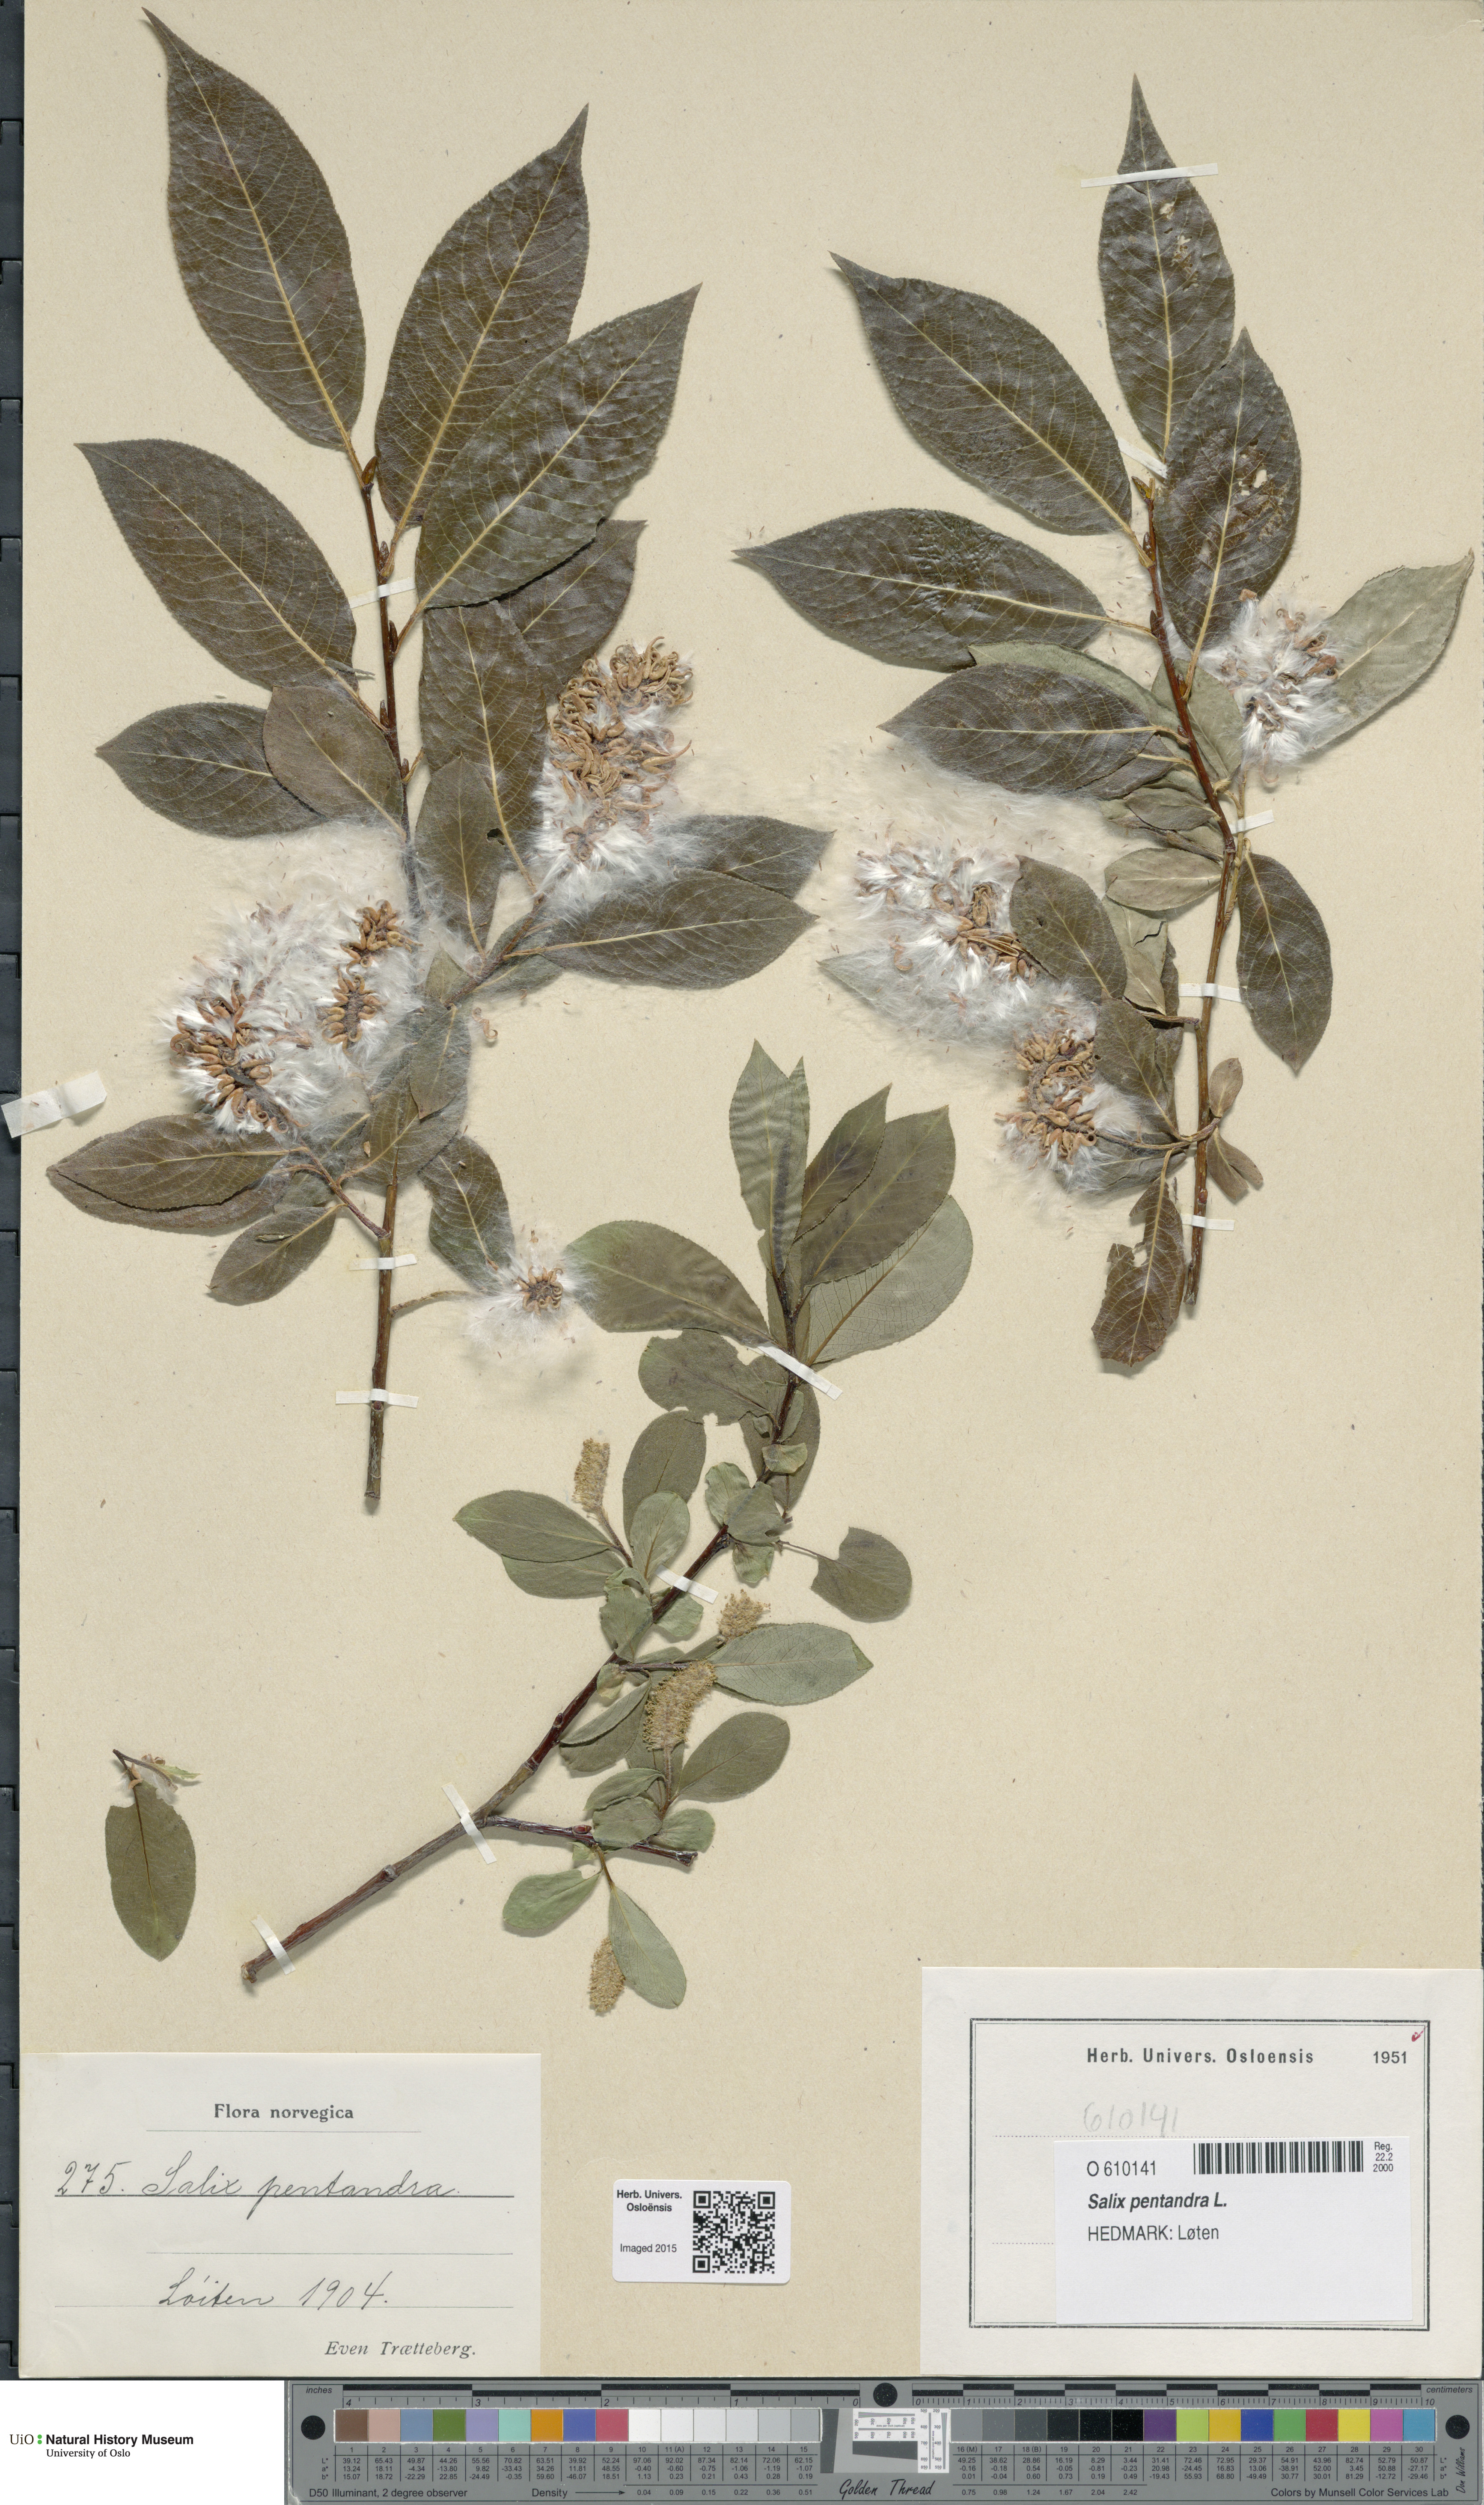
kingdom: Plantae
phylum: Tracheophyta
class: Magnoliopsida
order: Malpighiales
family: Salicaceae
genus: Salix
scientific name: Salix pentandra
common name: Bay willow
